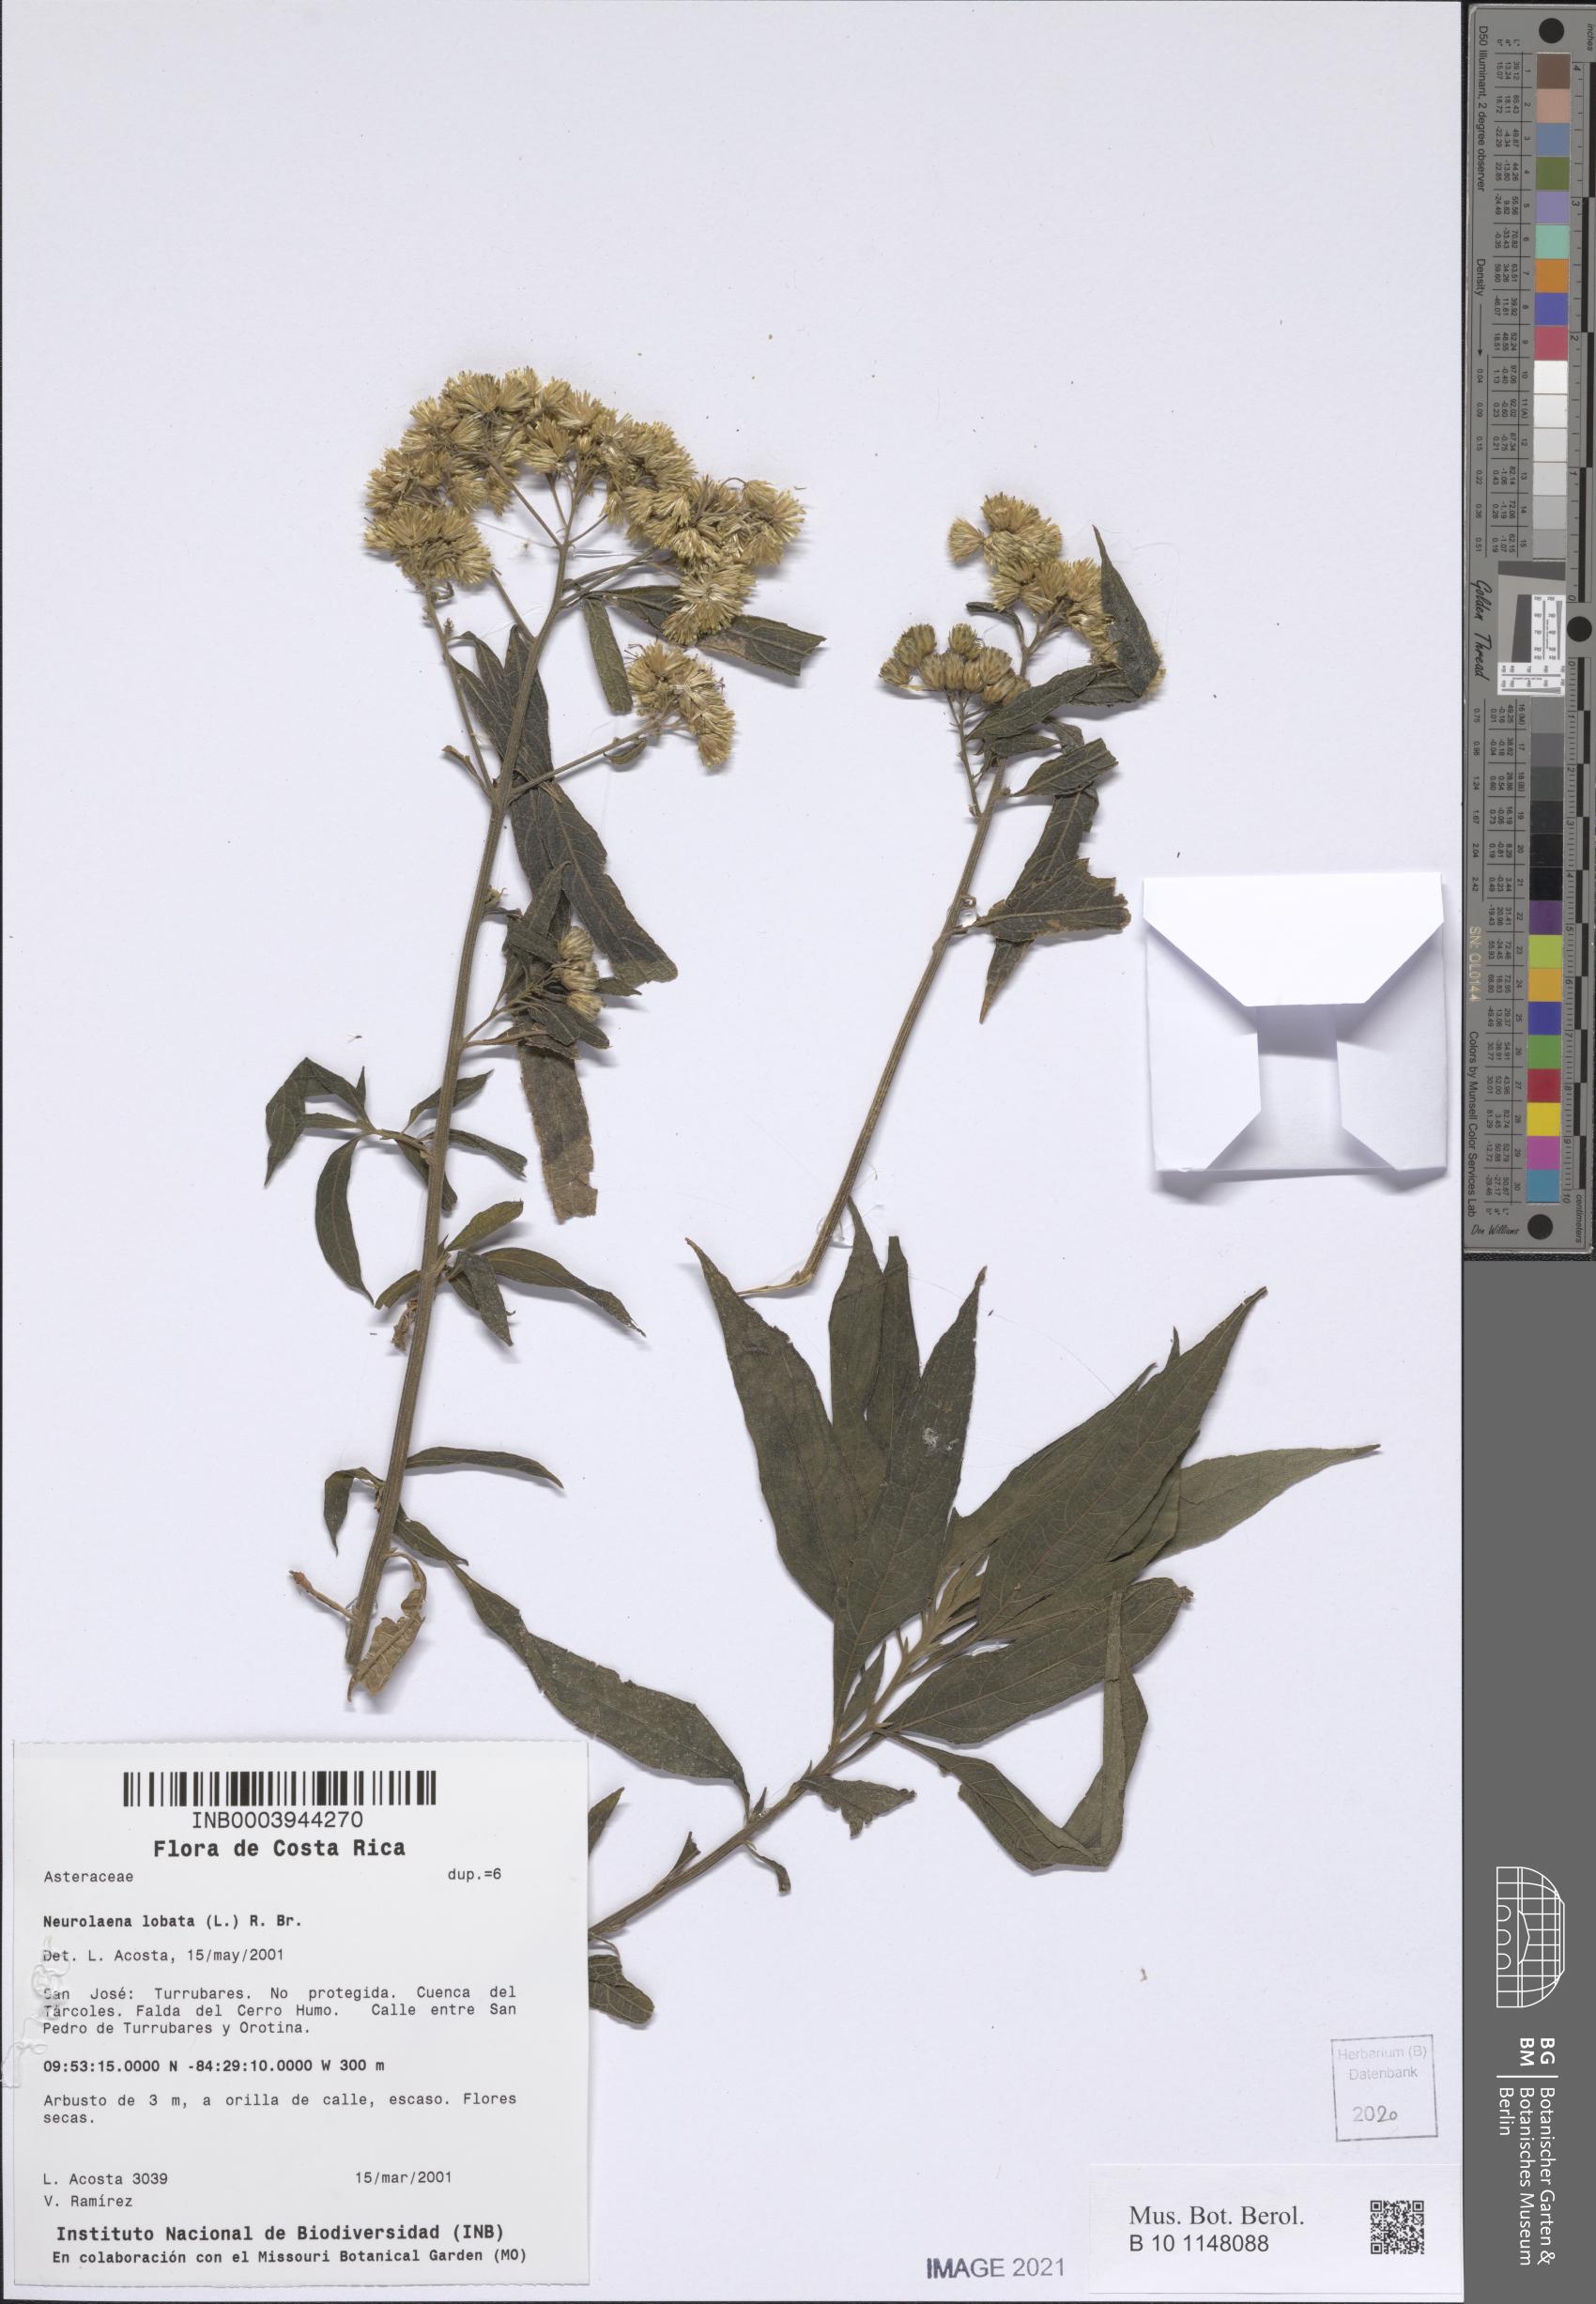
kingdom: Plantae
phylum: Tracheophyta
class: Magnoliopsida
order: Asterales
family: Asteraceae
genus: Neurolaena
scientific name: Neurolaena lobata
